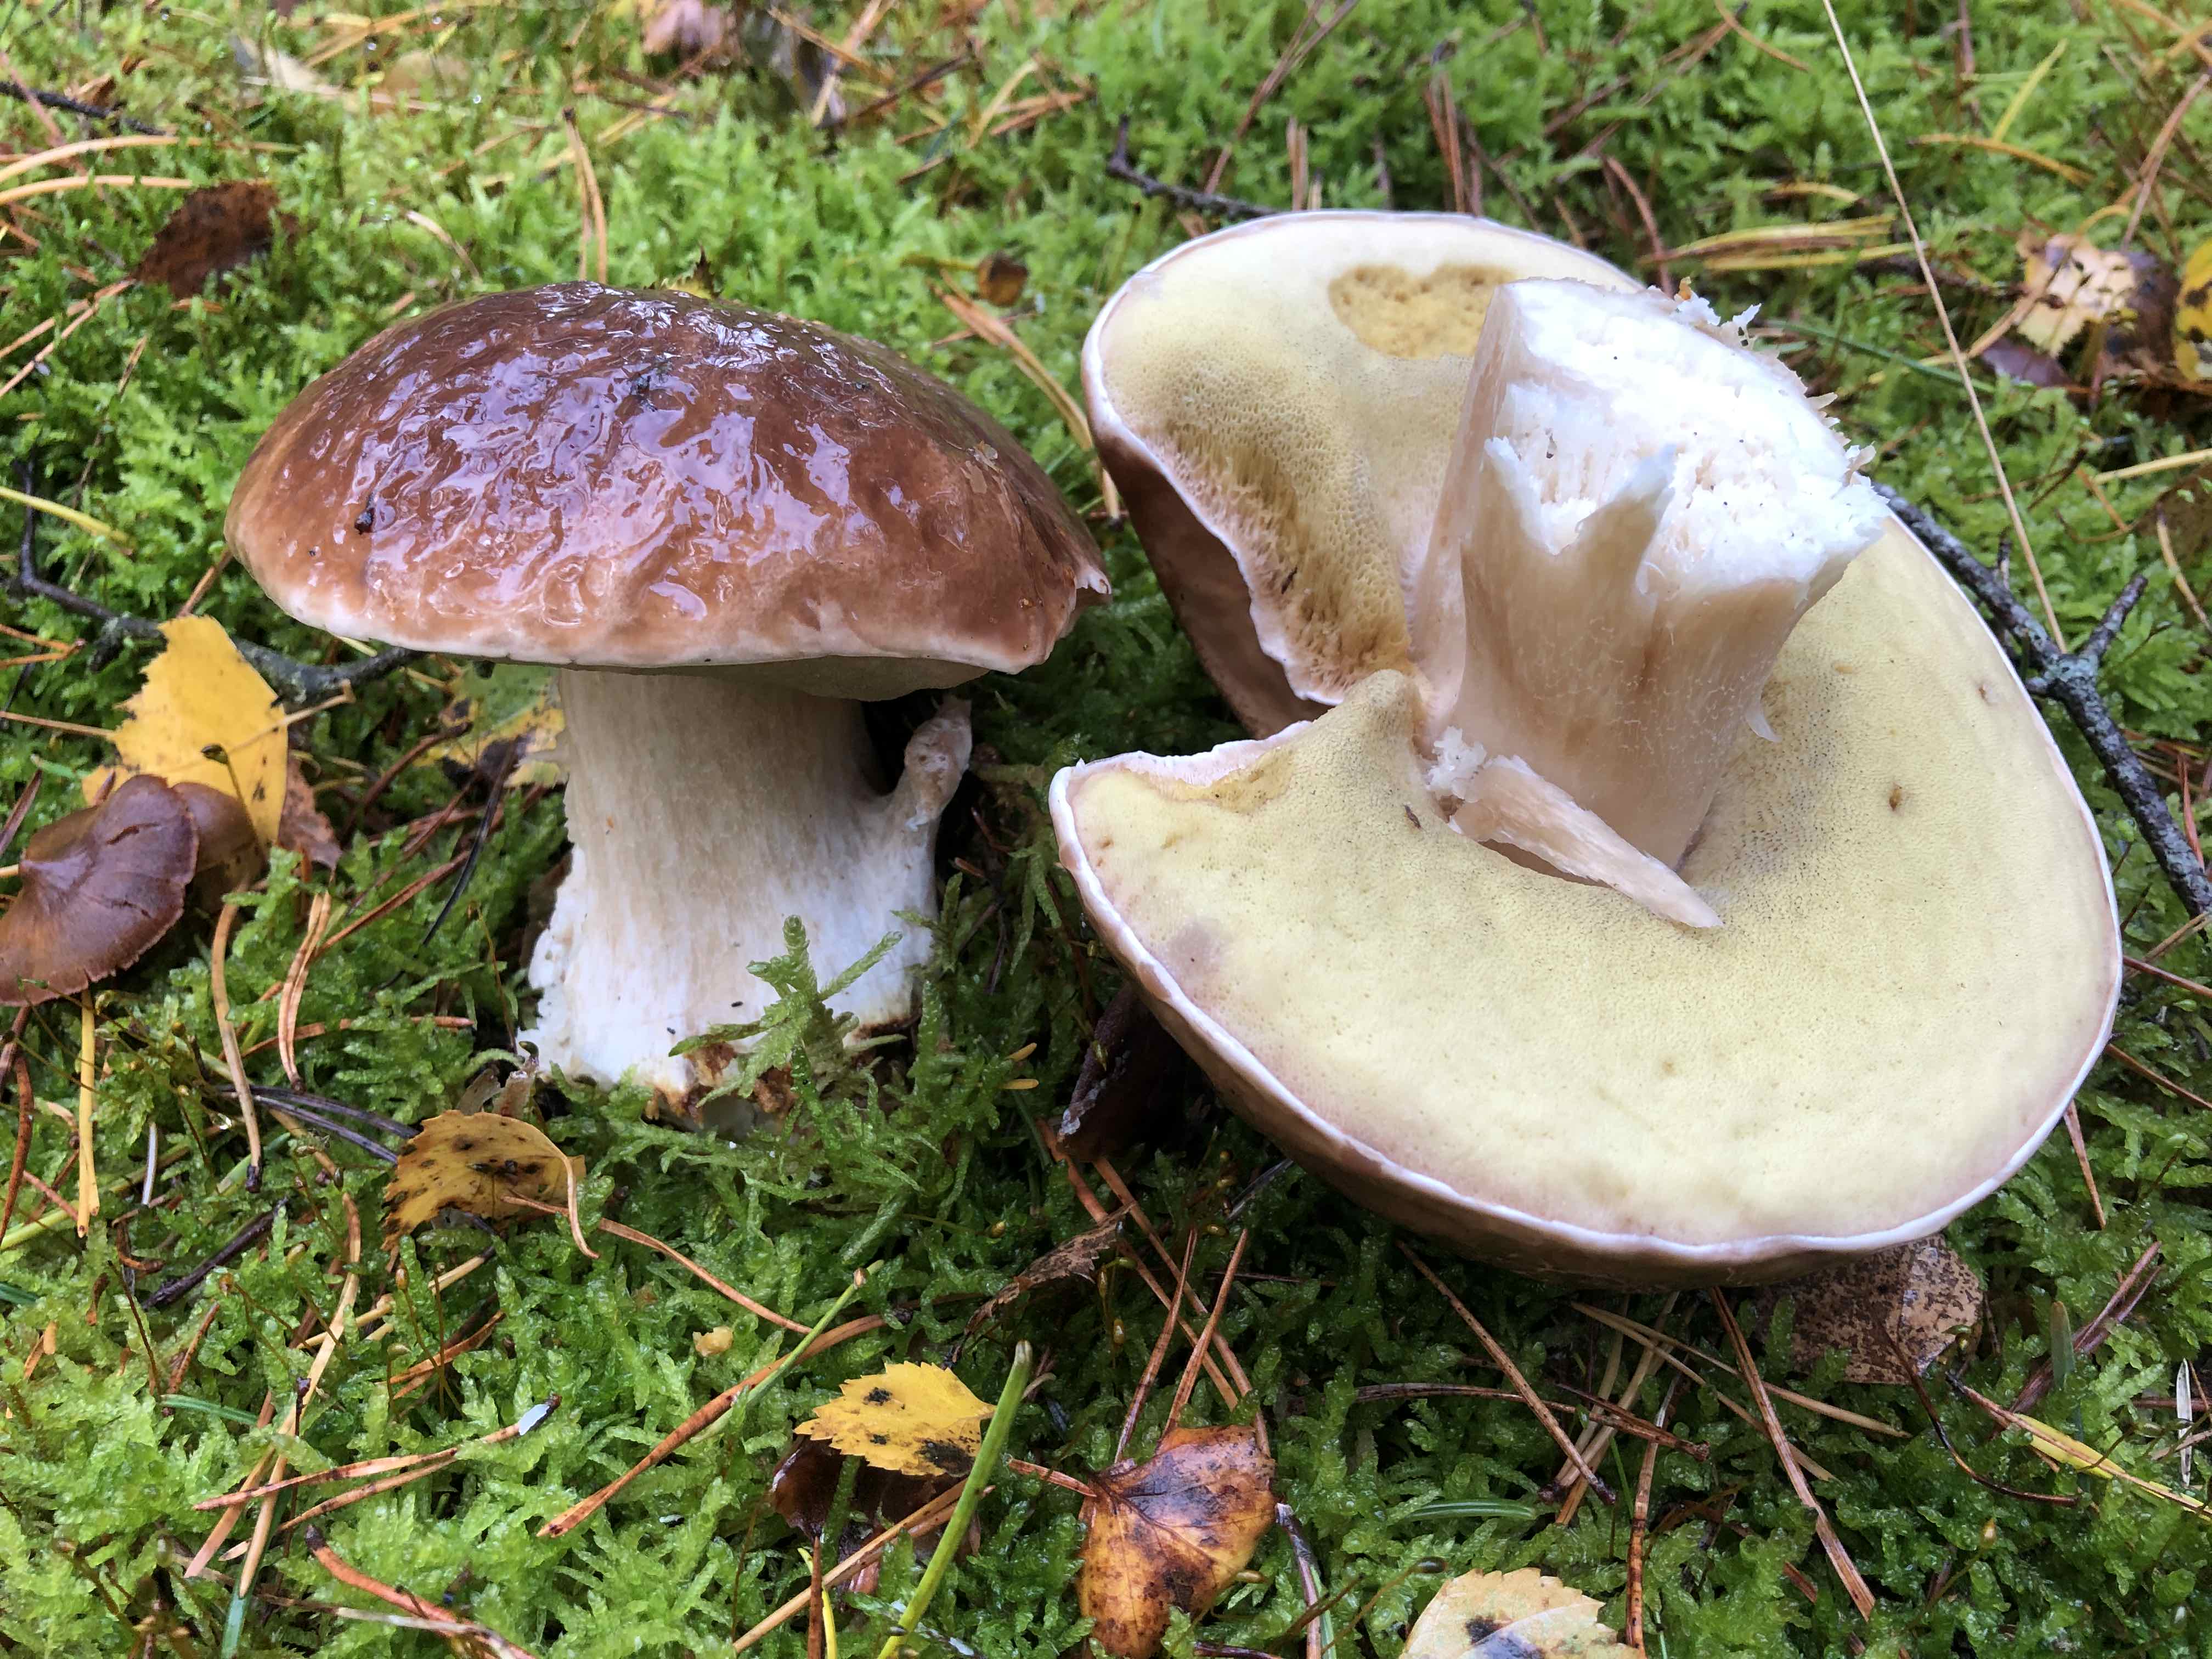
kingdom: Fungi
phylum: Basidiomycota
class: Agaricomycetes
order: Boletales
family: Boletaceae
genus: Boletus
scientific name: Boletus edulis
